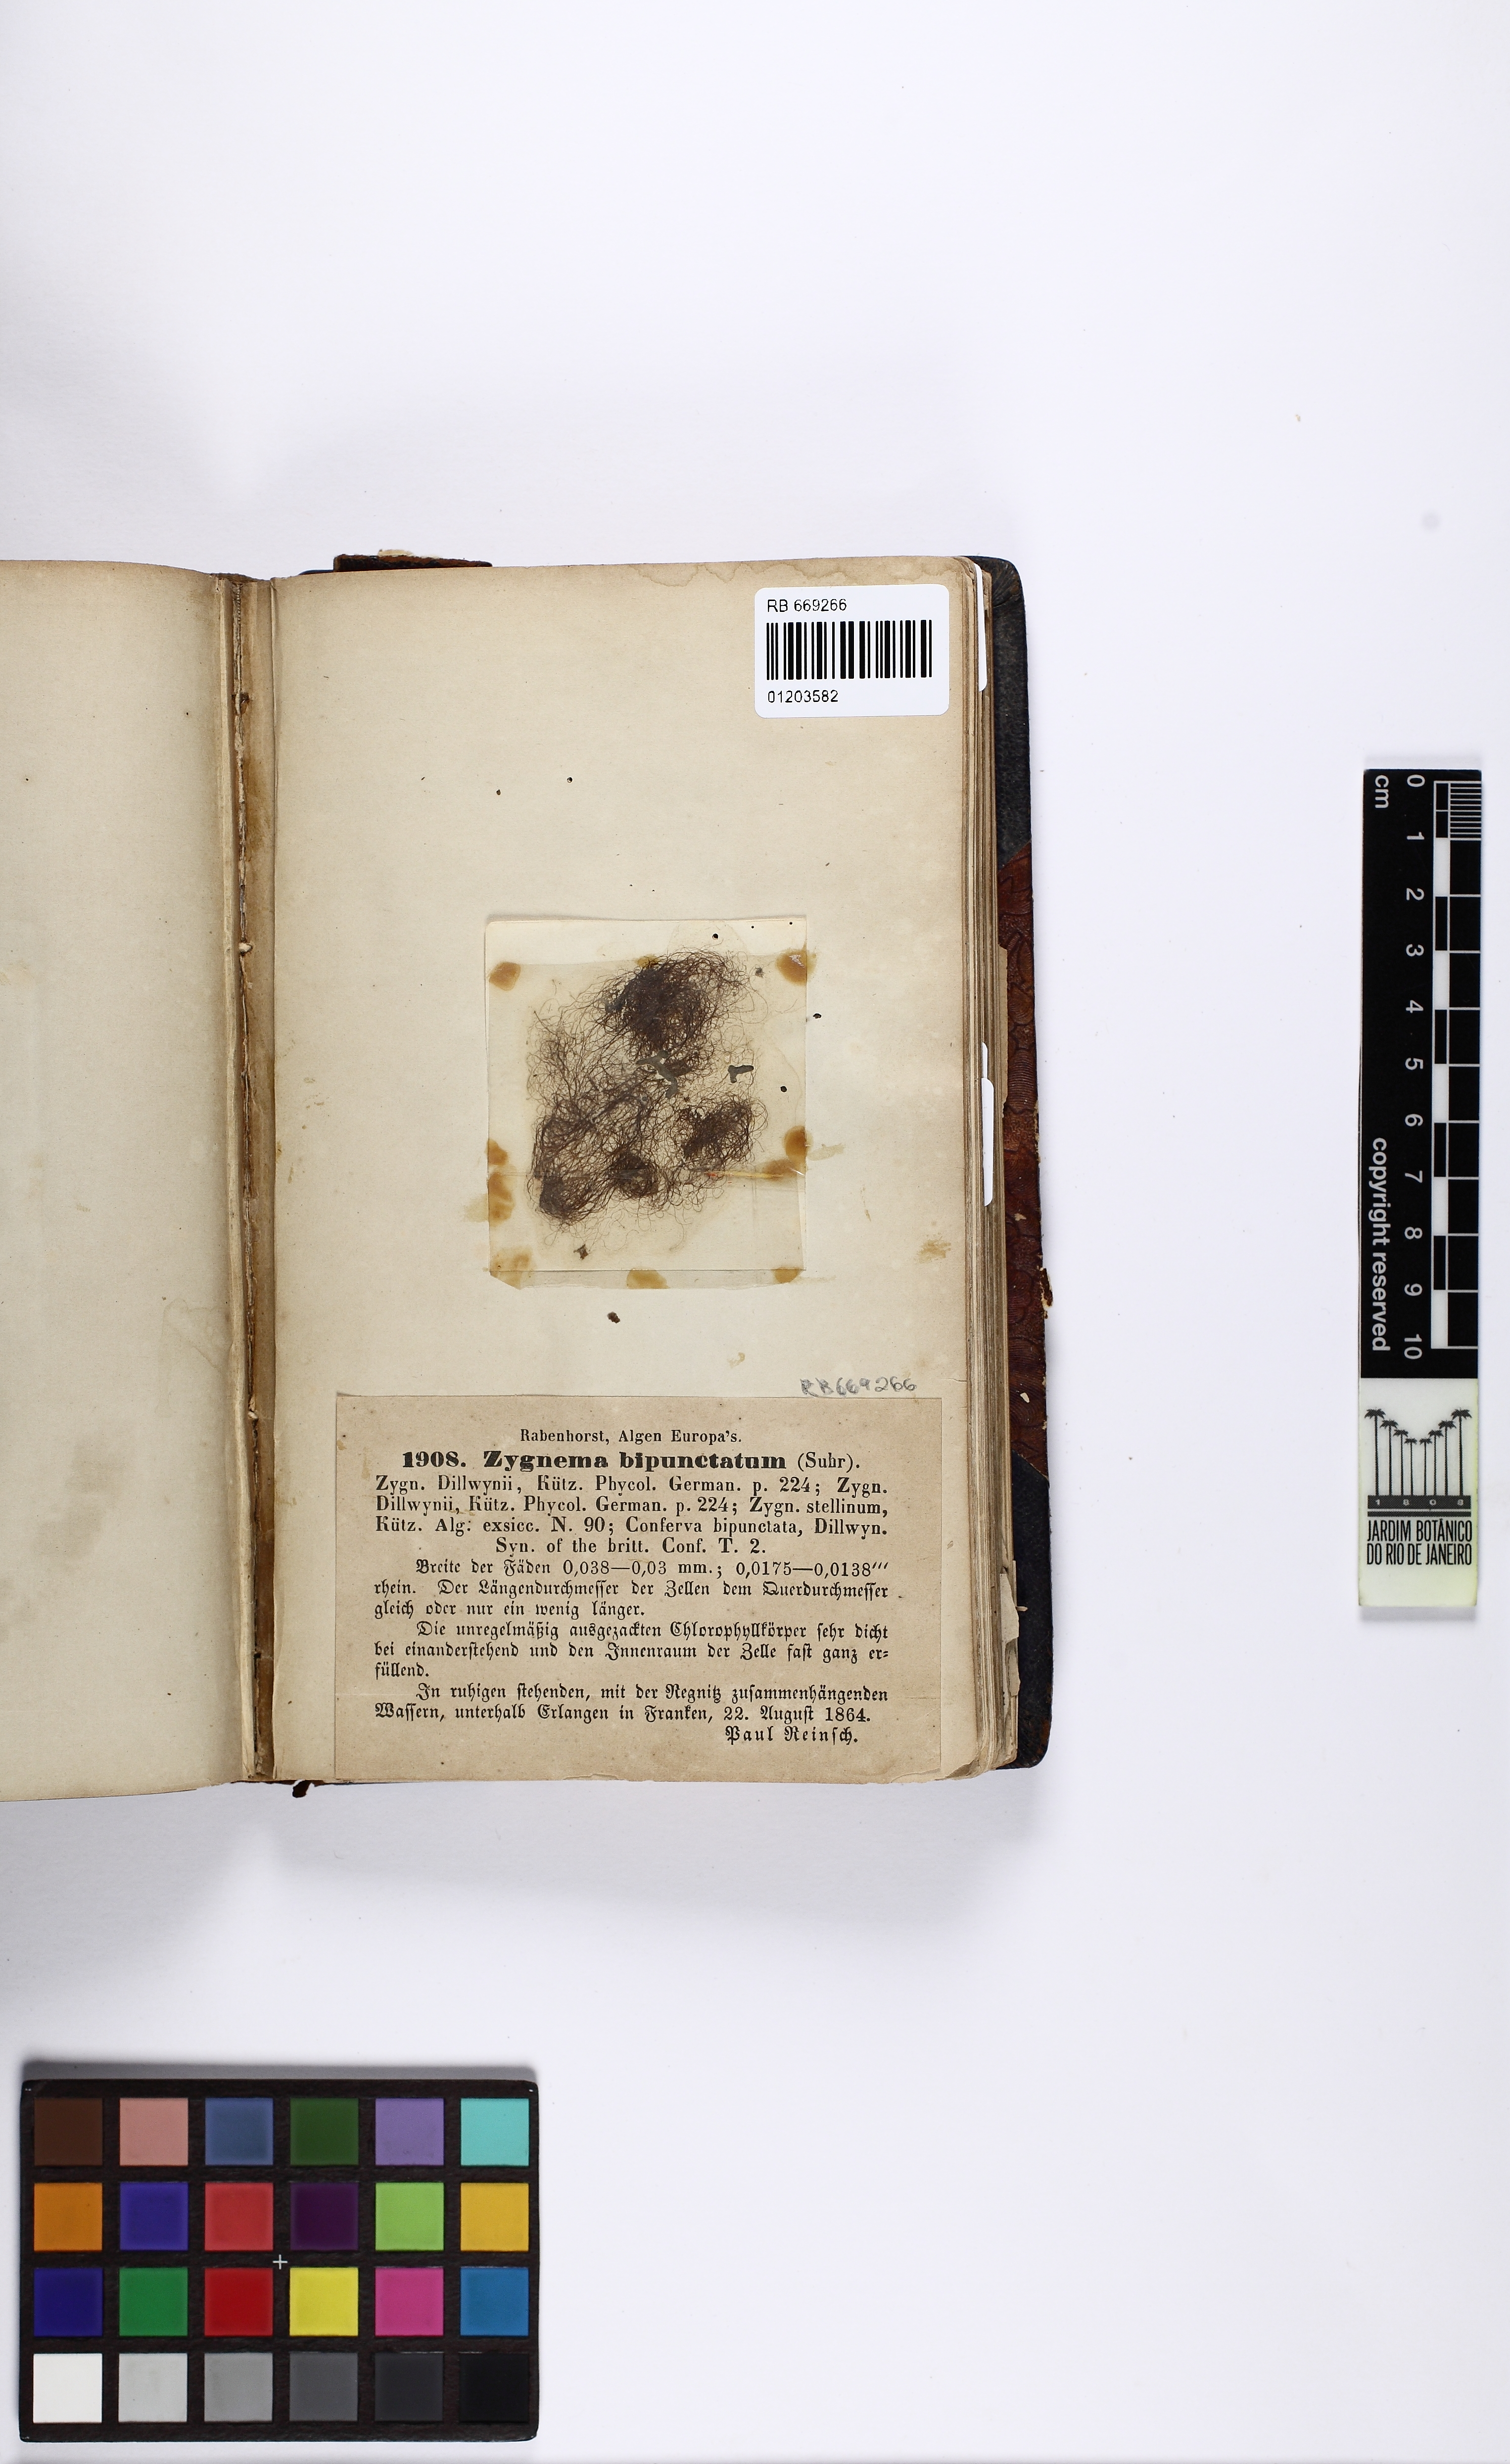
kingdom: Plantae
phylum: Charophyta
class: Zygnematophyceae
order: Zygnematales
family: Zygnemataceae
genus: Zygnema
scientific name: Zygnema
